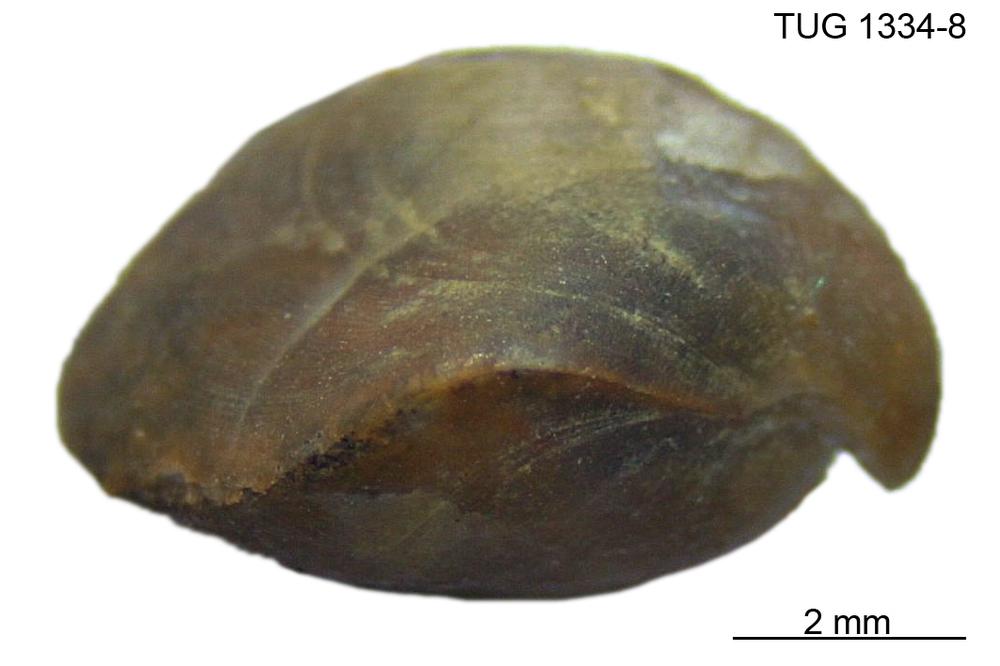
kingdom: Animalia
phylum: Brachiopoda
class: Rhynchonellata
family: Cyclospiridae
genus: Cyclospira
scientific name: Cyclospira levisulcata
